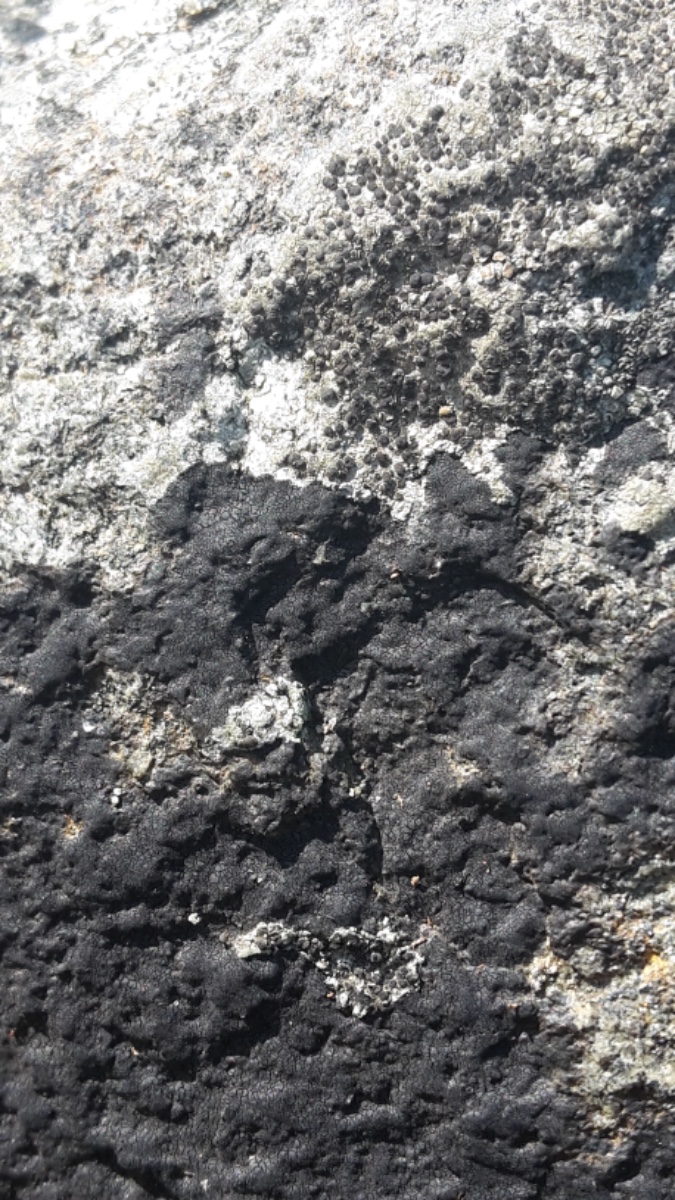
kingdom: Fungi
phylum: Ascomycota
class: Eurotiomycetes
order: Verrucariales
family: Verrucariaceae
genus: Hydropunctaria
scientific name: Hydropunctaria maura
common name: strand-vortelav
